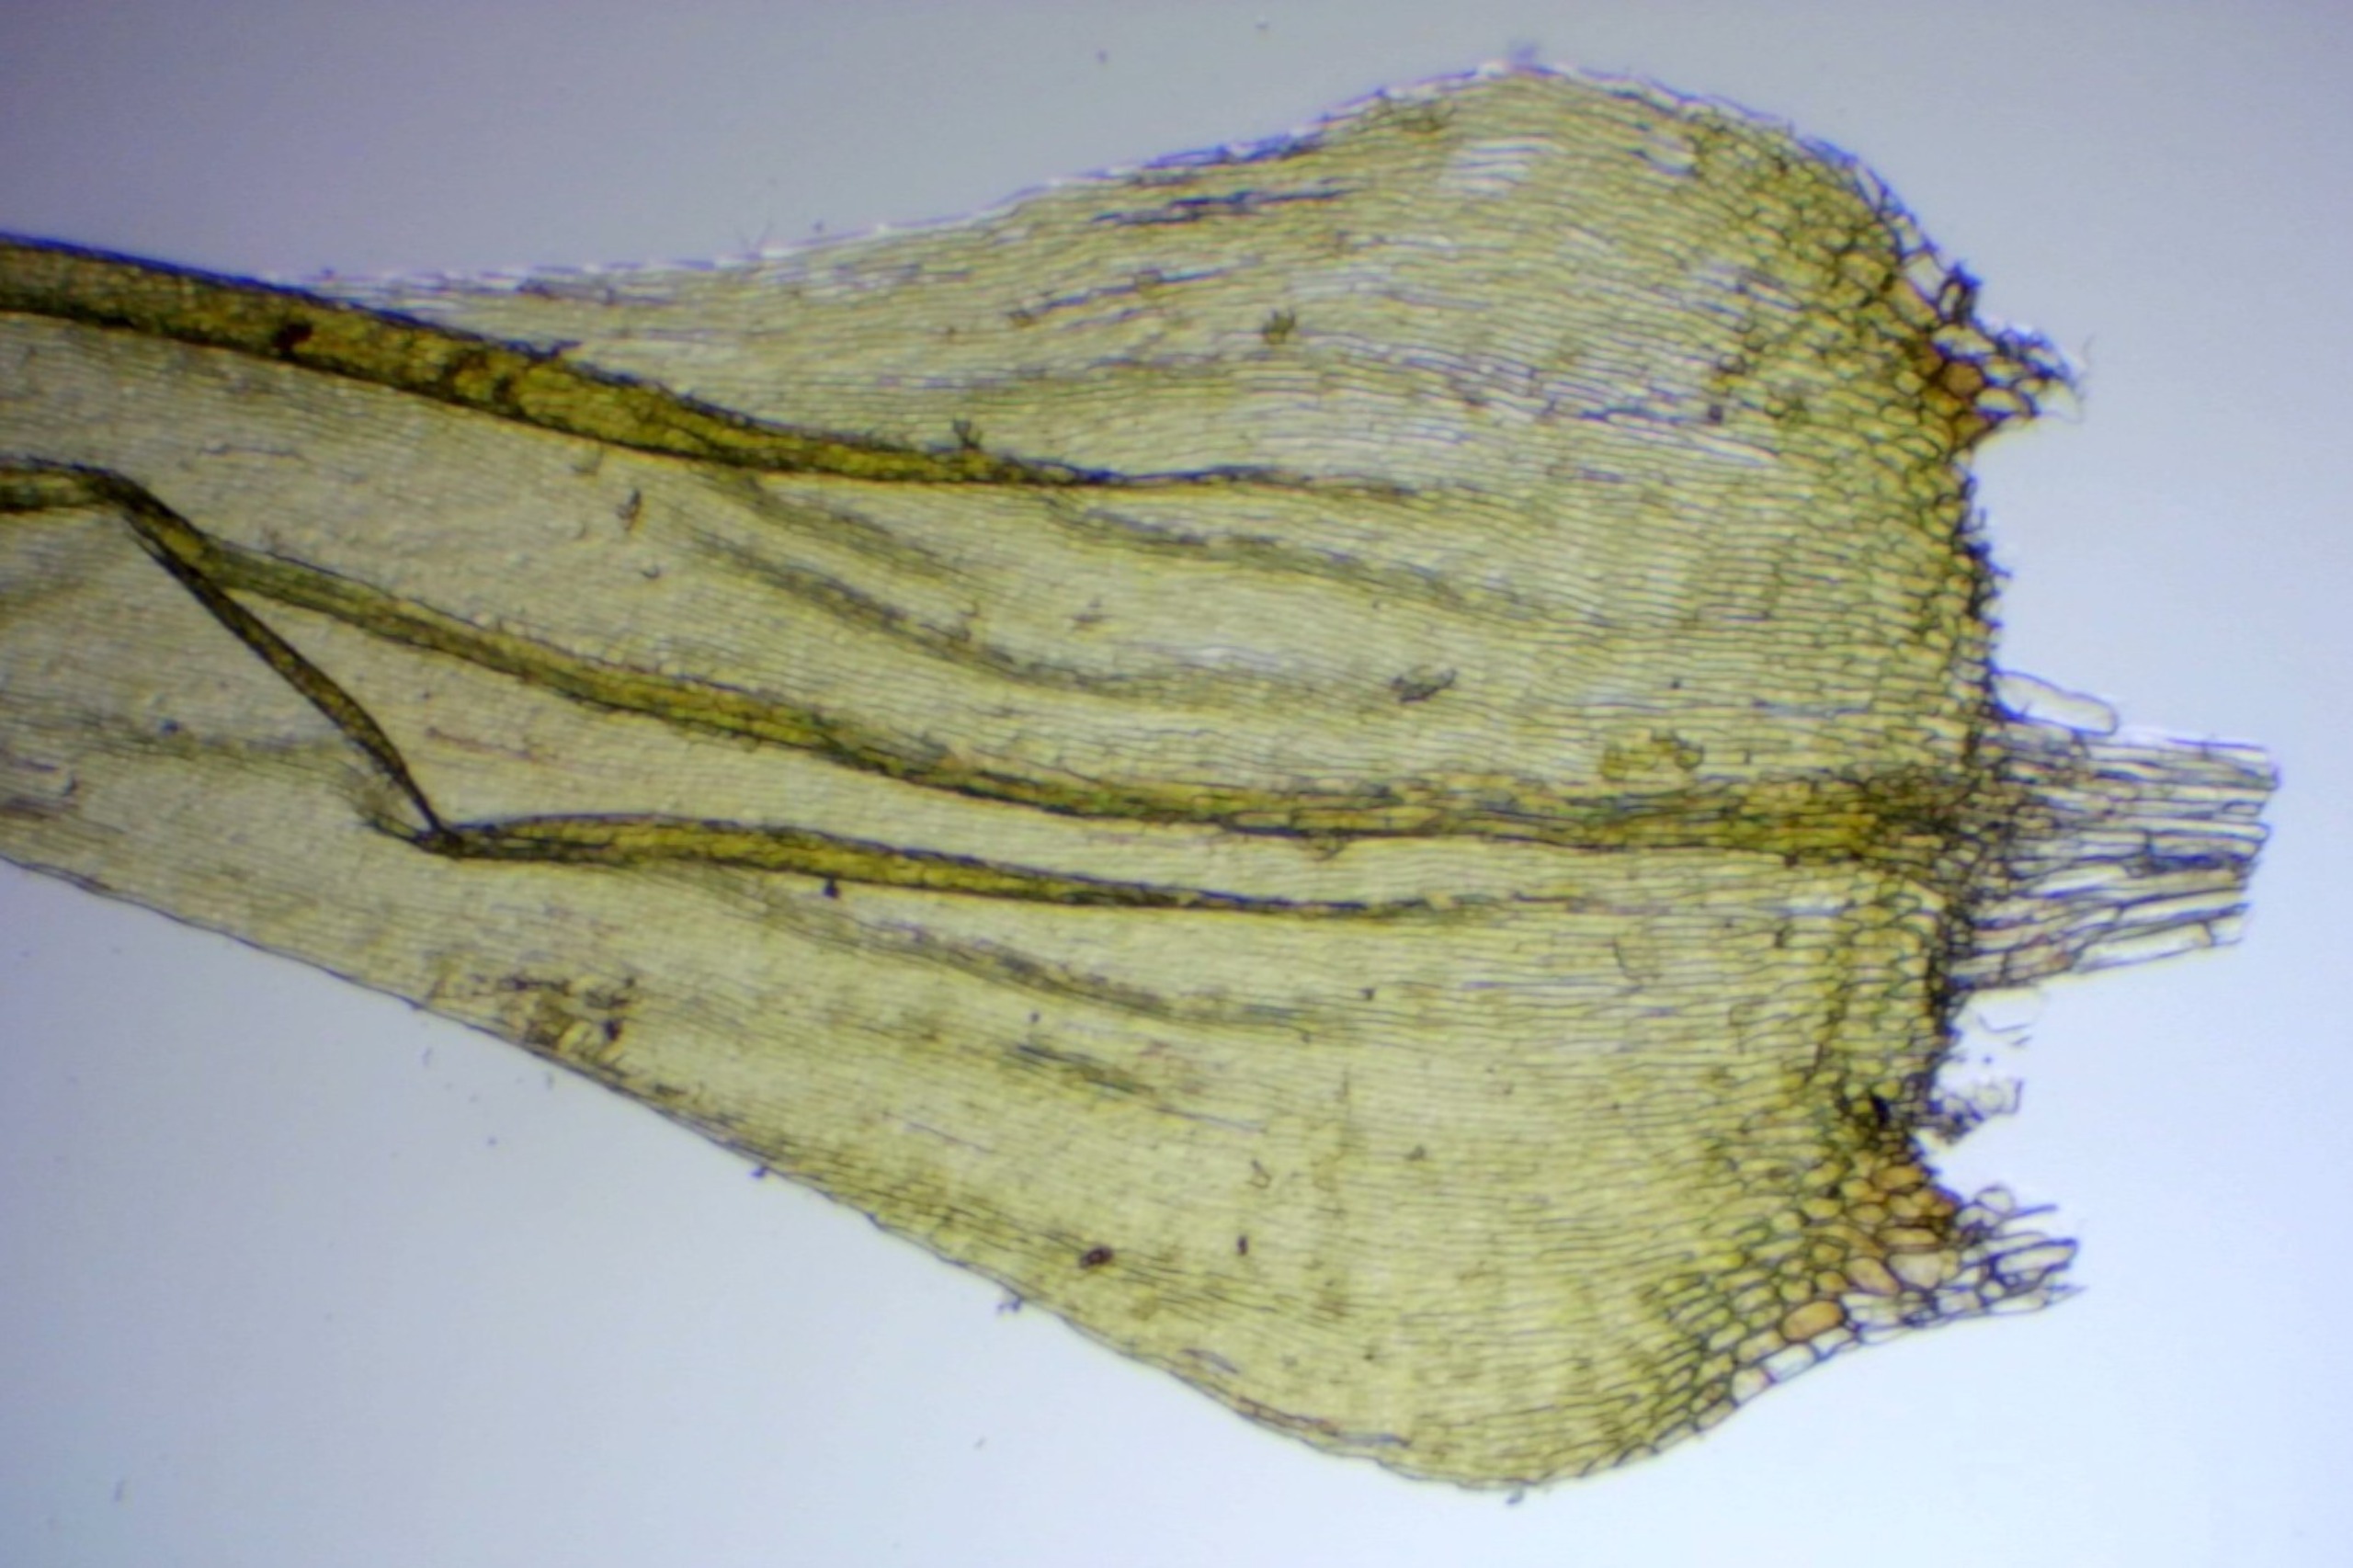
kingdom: Plantae
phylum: Bryophyta
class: Bryopsida
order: Hypnales
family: Scorpidiaceae
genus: Sanionia
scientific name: Sanionia uncinata
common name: Stribet krogblad
